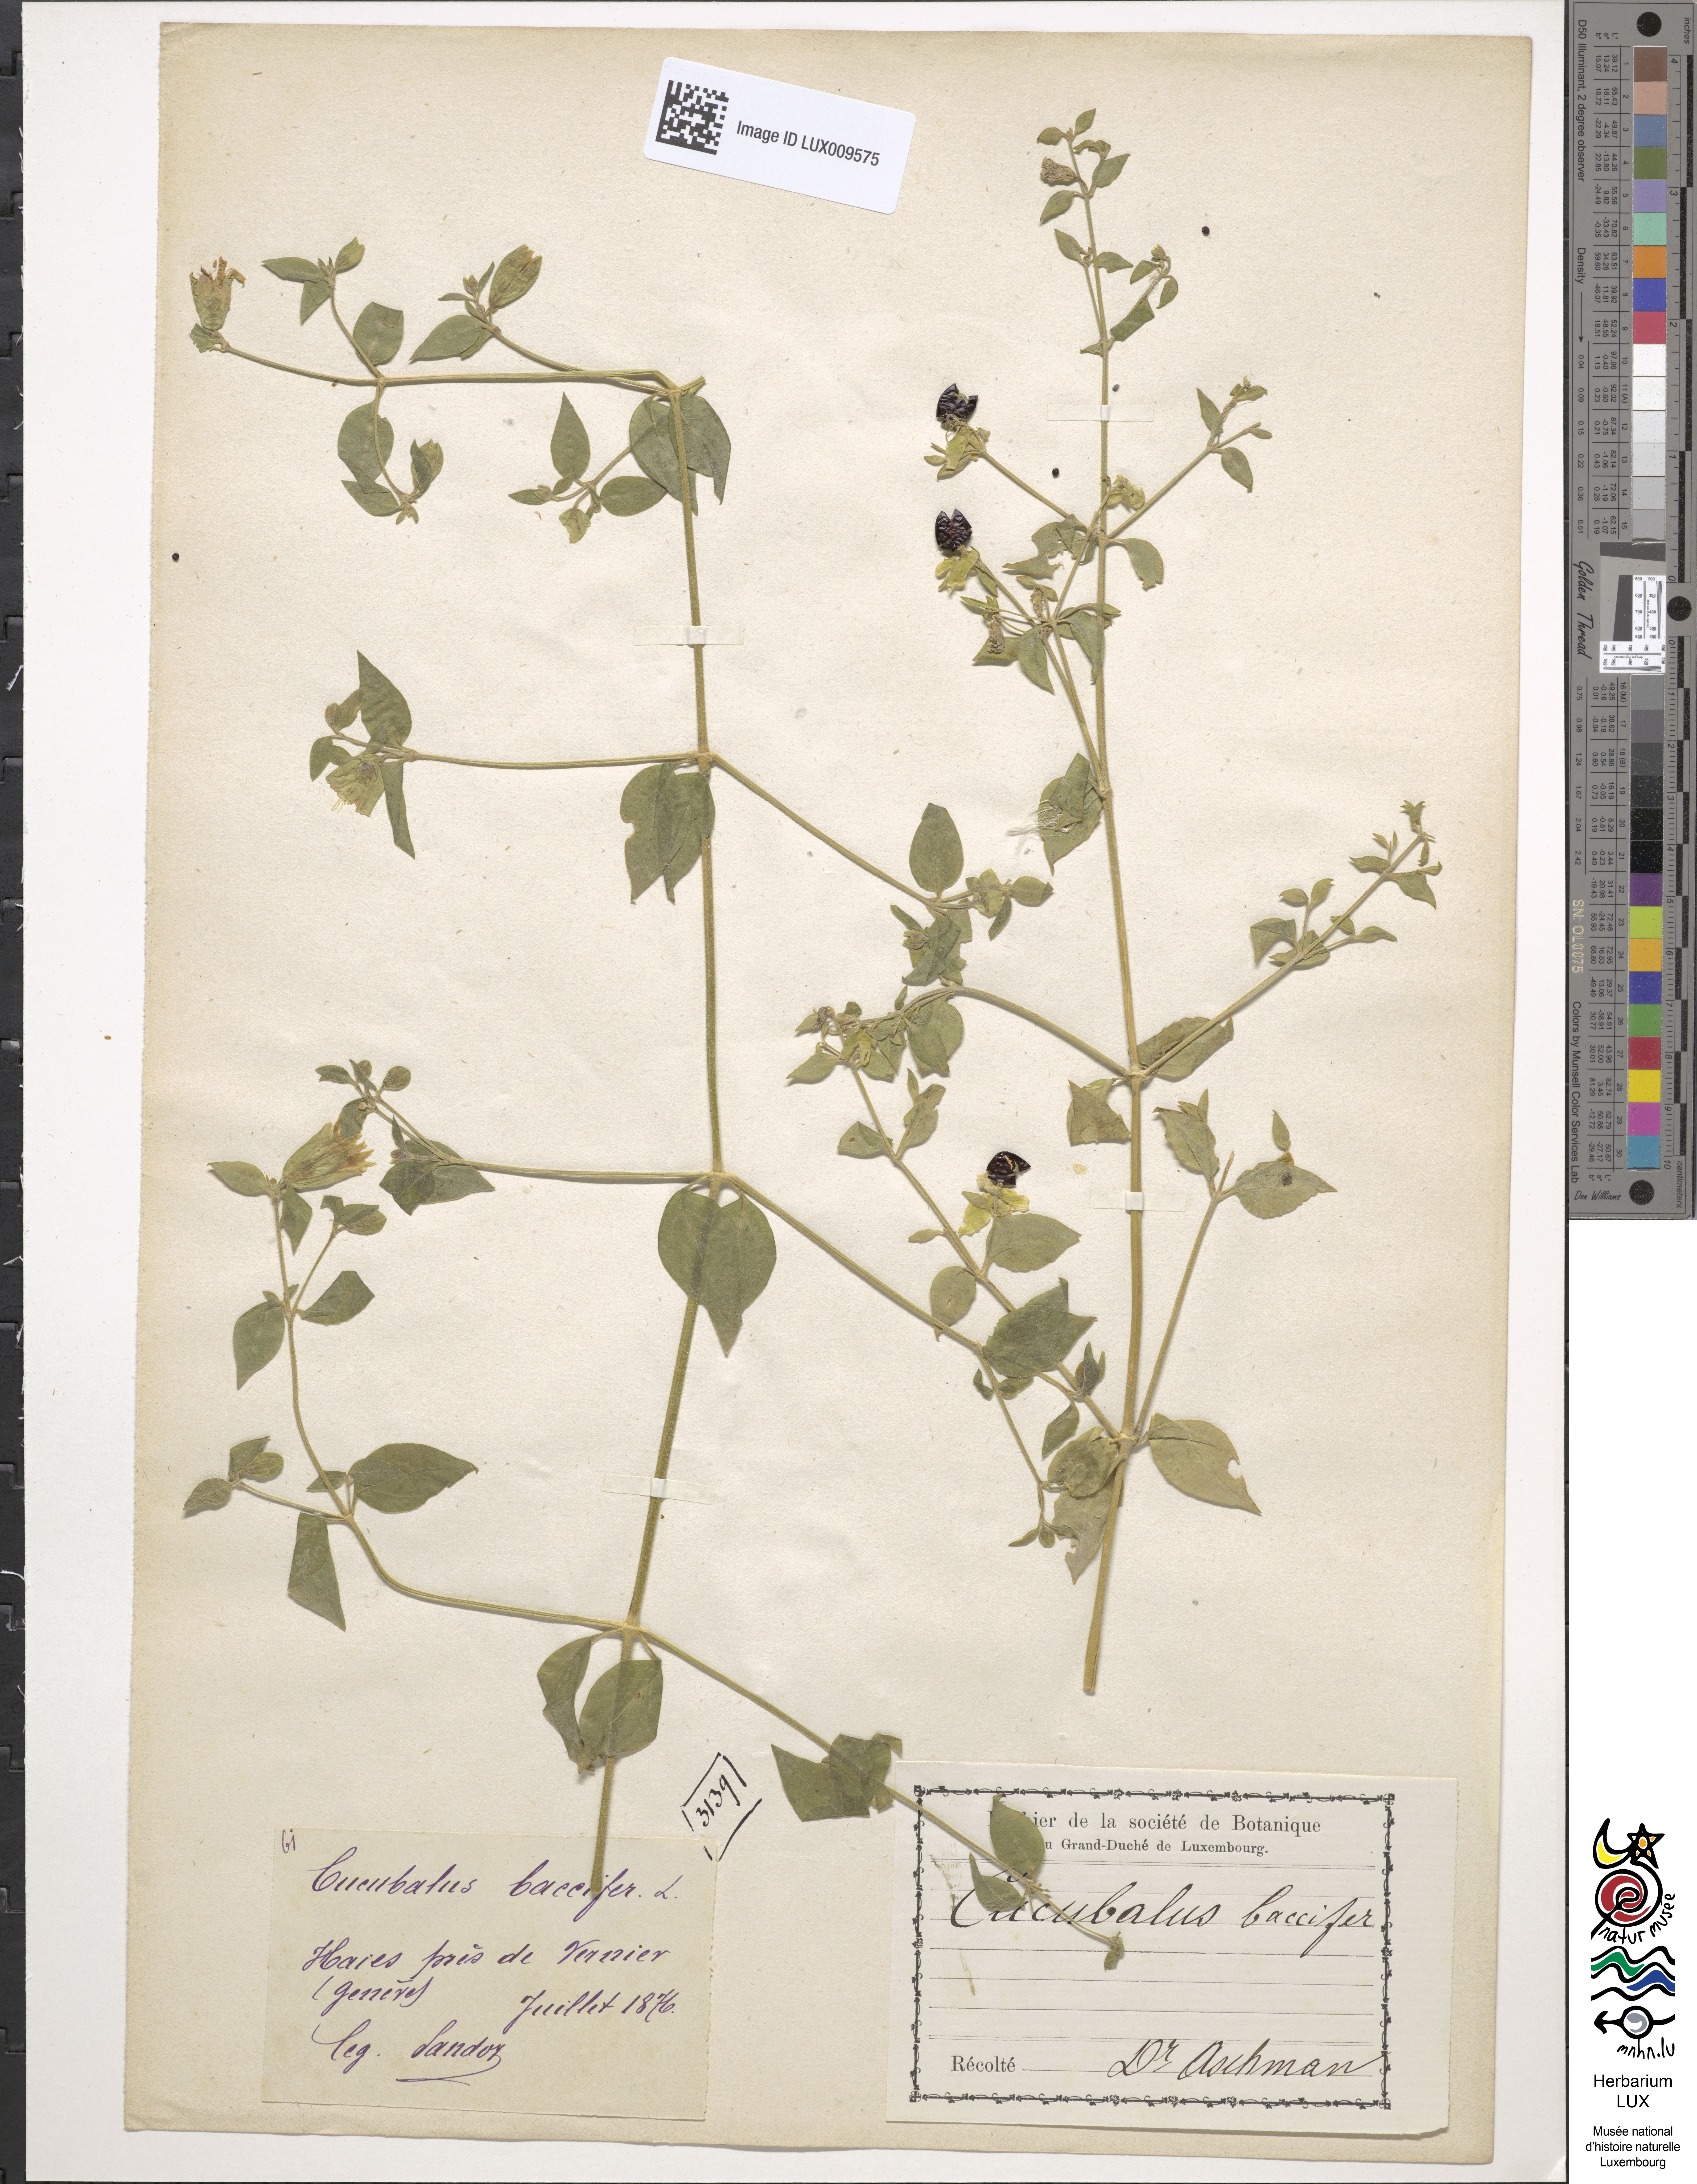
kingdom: Plantae
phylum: Tracheophyta
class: Magnoliopsida
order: Caryophyllales
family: Caryophyllaceae
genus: Silene
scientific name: Silene baccifera
